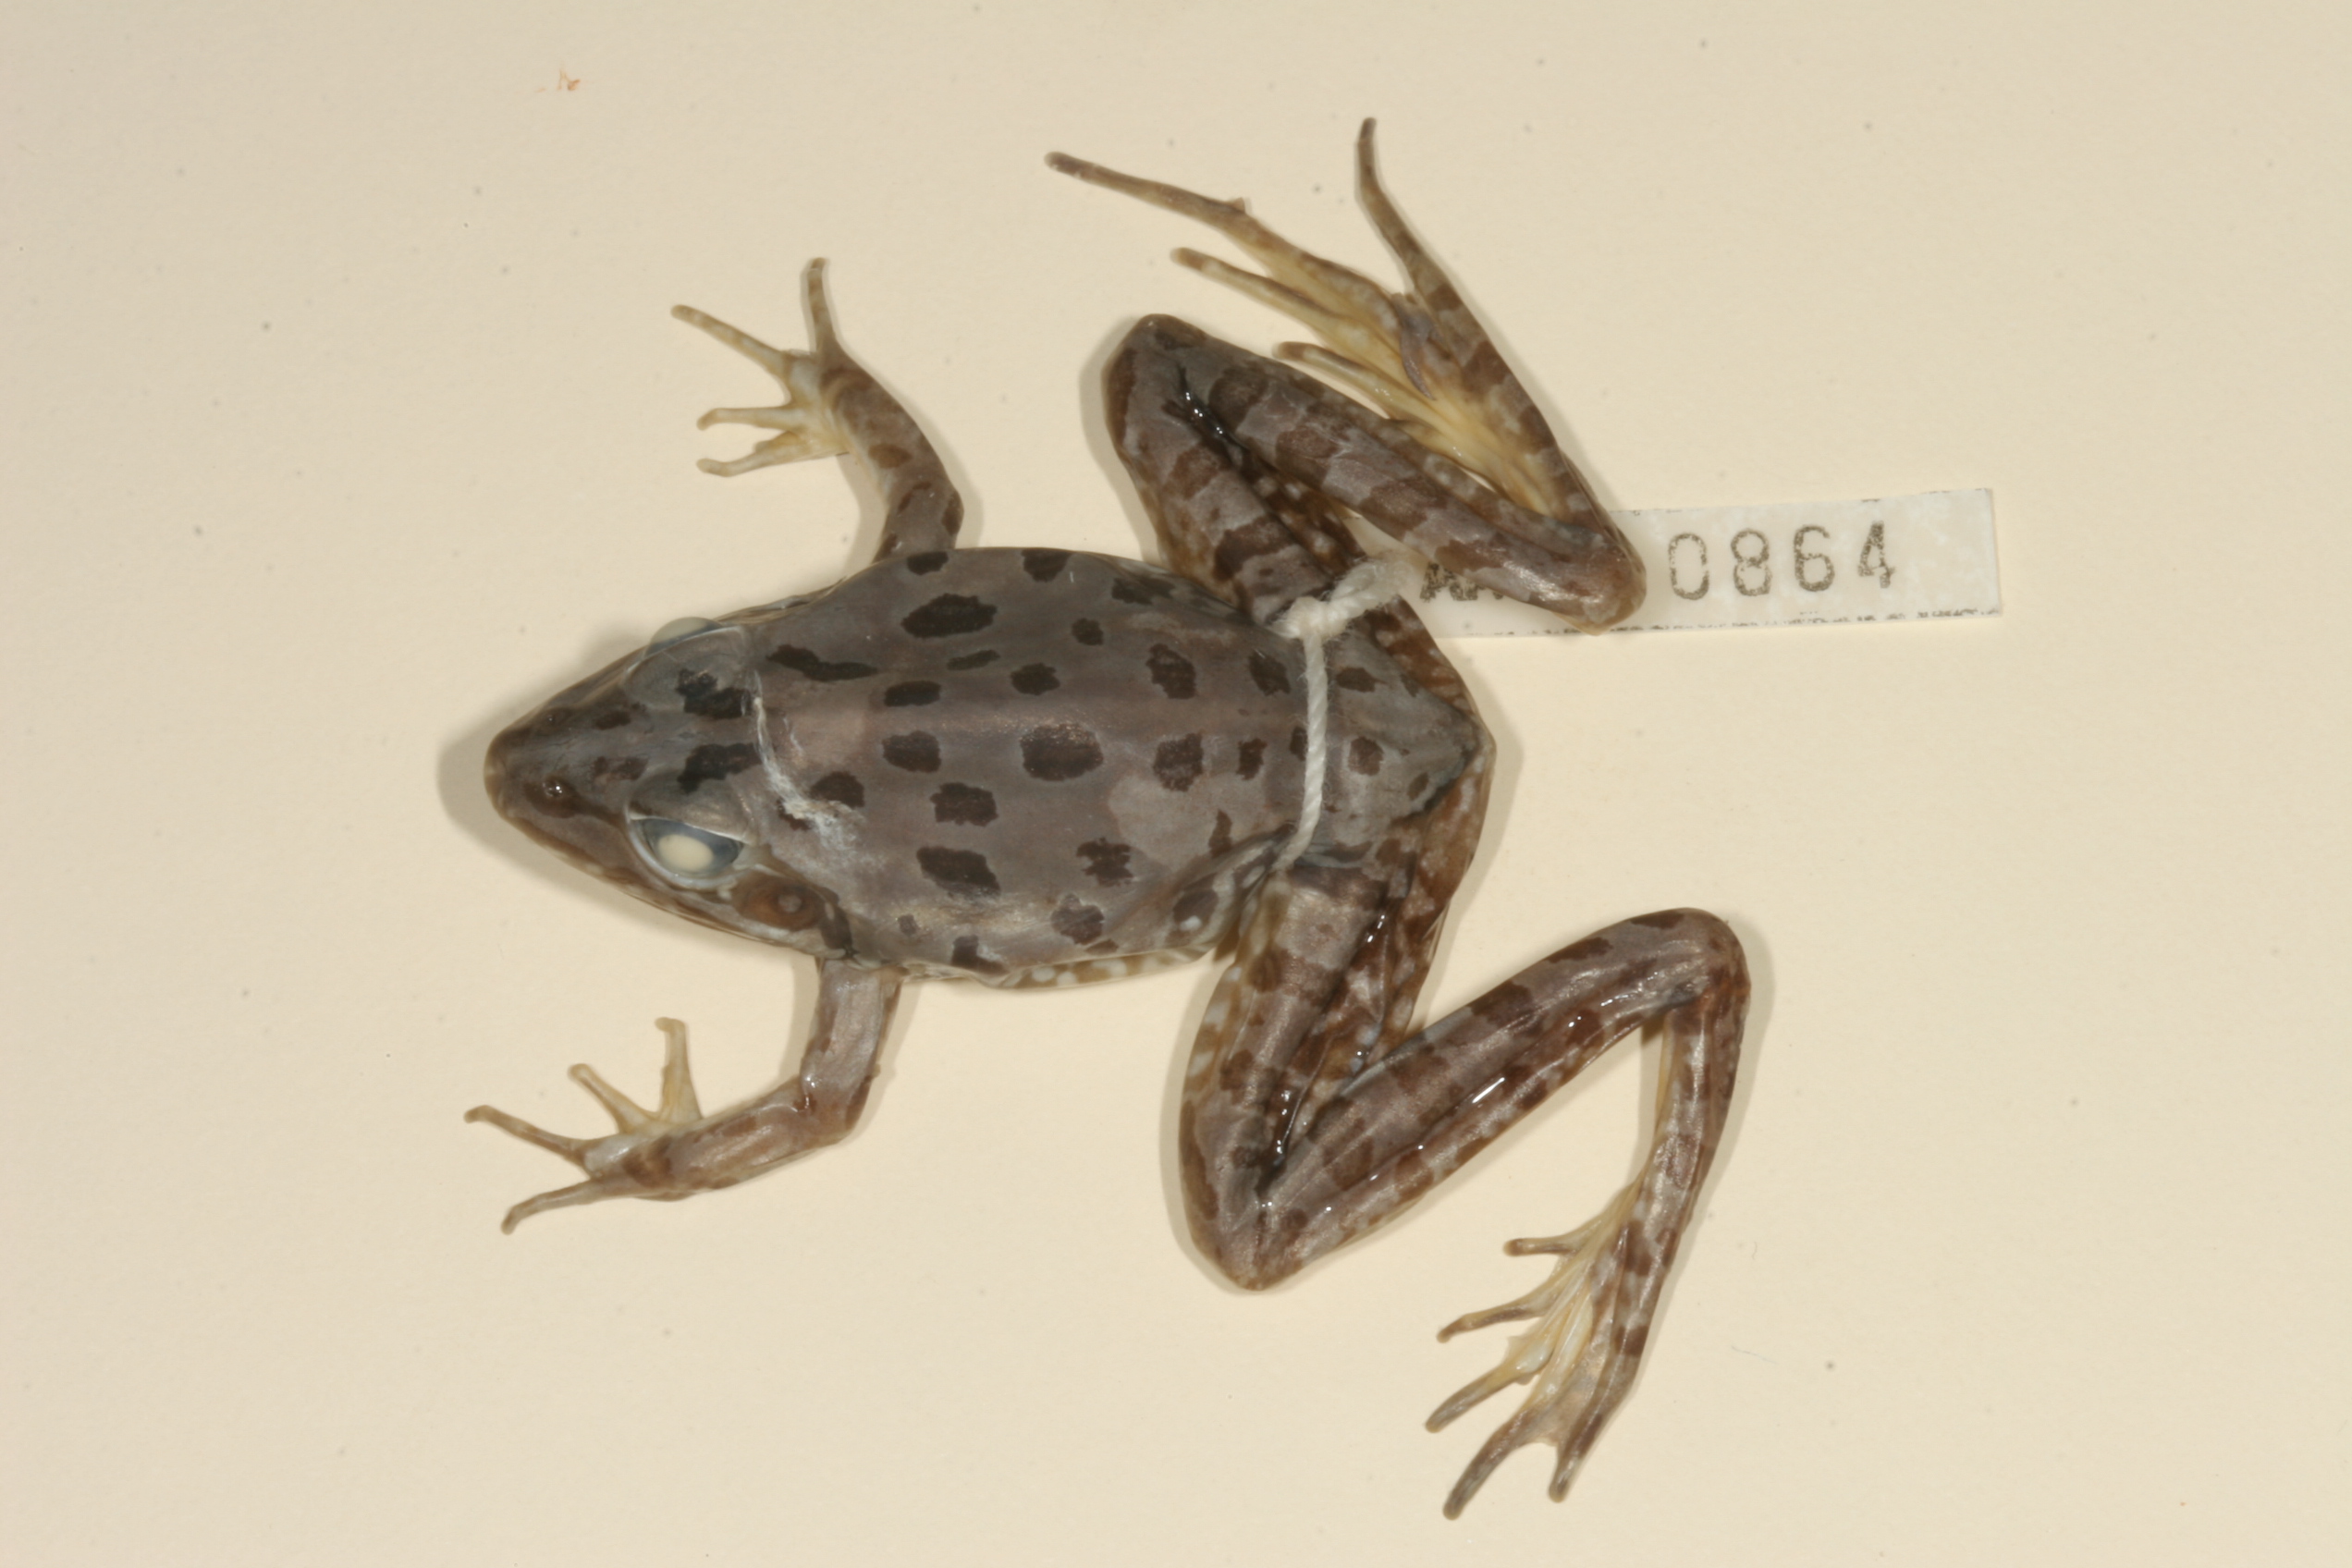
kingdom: Animalia
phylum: Chordata
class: Amphibia
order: Anura
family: Pyxicephalidae
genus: Amietia
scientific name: Amietia angolensis
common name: Dusky-throated frog
